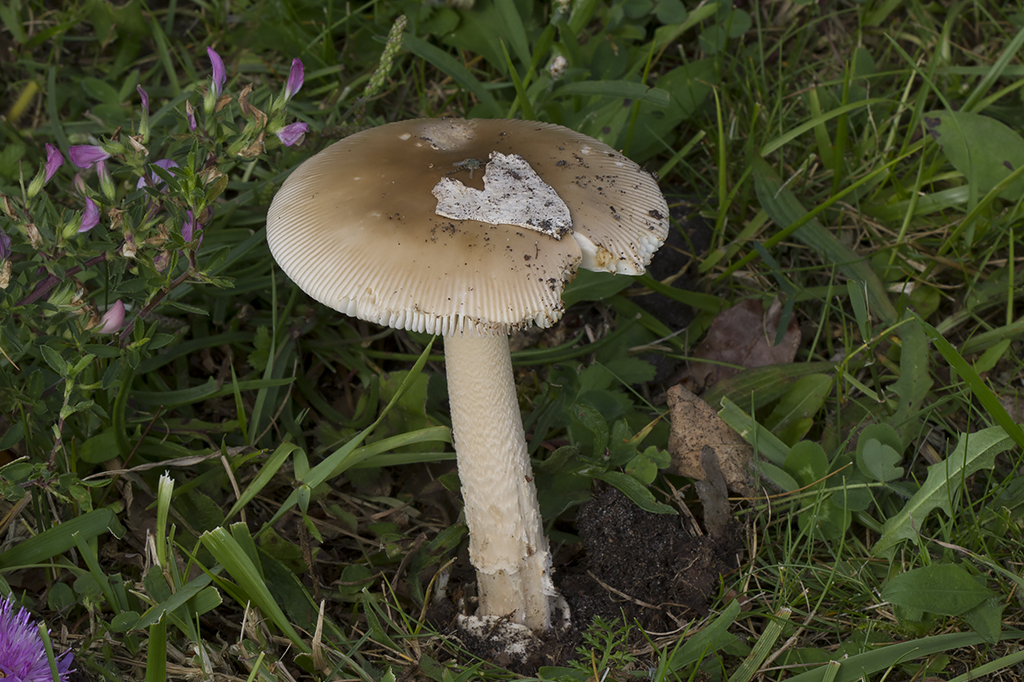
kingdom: Fungi
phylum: Basidiomycota
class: Agaricomycetes
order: Agaricales
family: Amanitaceae
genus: Amanita
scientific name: Amanita lividopallescens
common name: afblegende kam-fluesvamp
